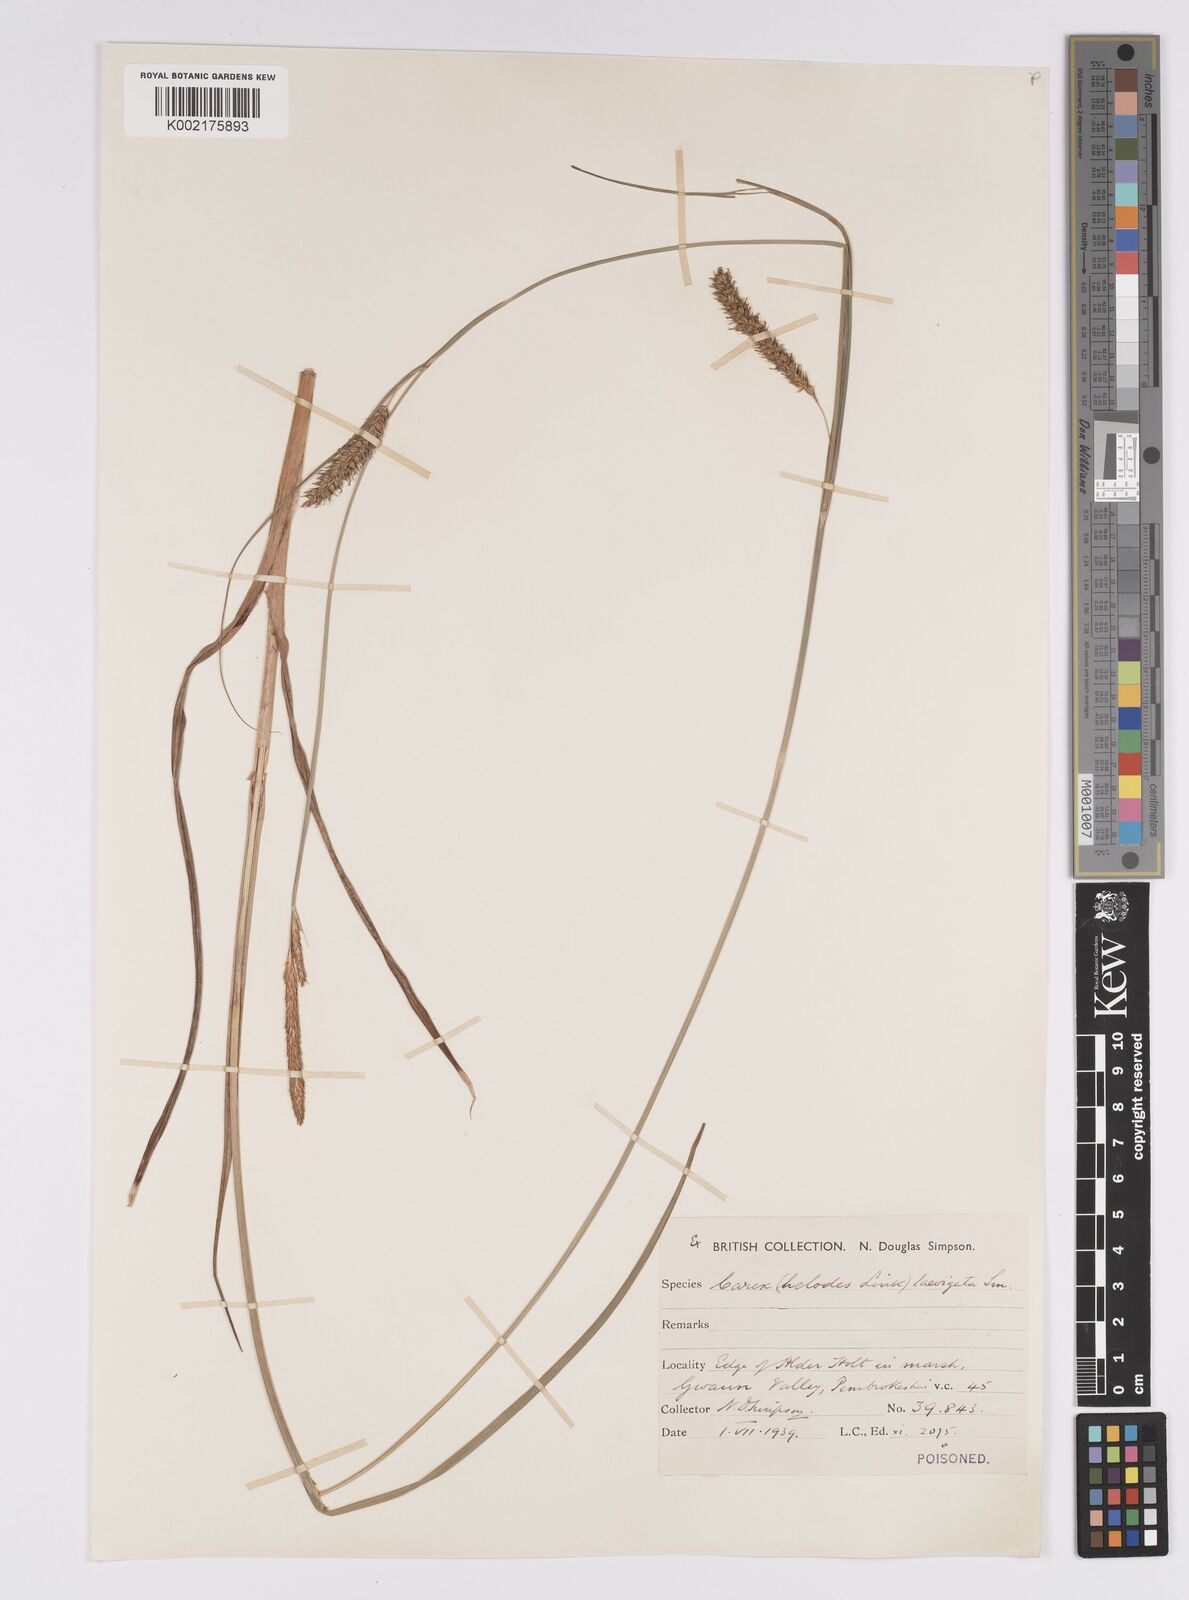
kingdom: Plantae
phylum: Tracheophyta
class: Liliopsida
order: Poales
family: Cyperaceae
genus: Carex
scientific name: Carex laevigata
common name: Smooth-stalked sedge
